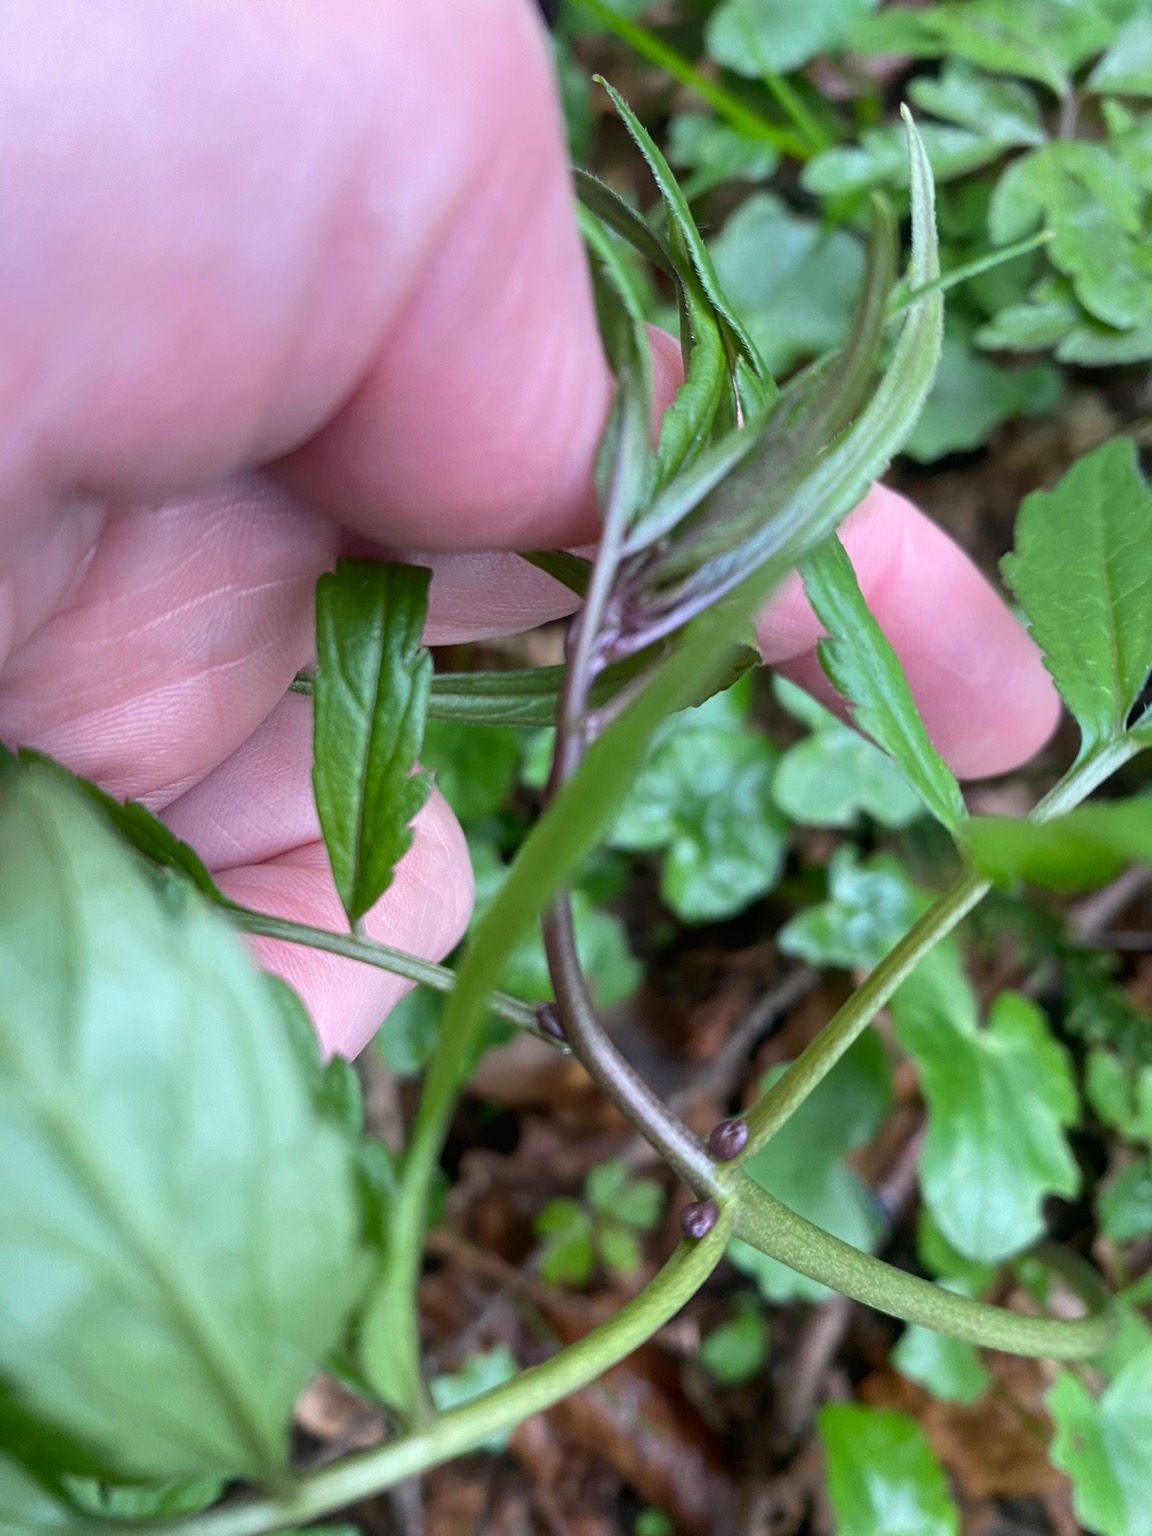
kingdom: Plantae
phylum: Tracheophyta
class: Magnoliopsida
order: Brassicales
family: Brassicaceae
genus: Cardamine
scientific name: Cardamine bulbifera
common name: Tandrod
